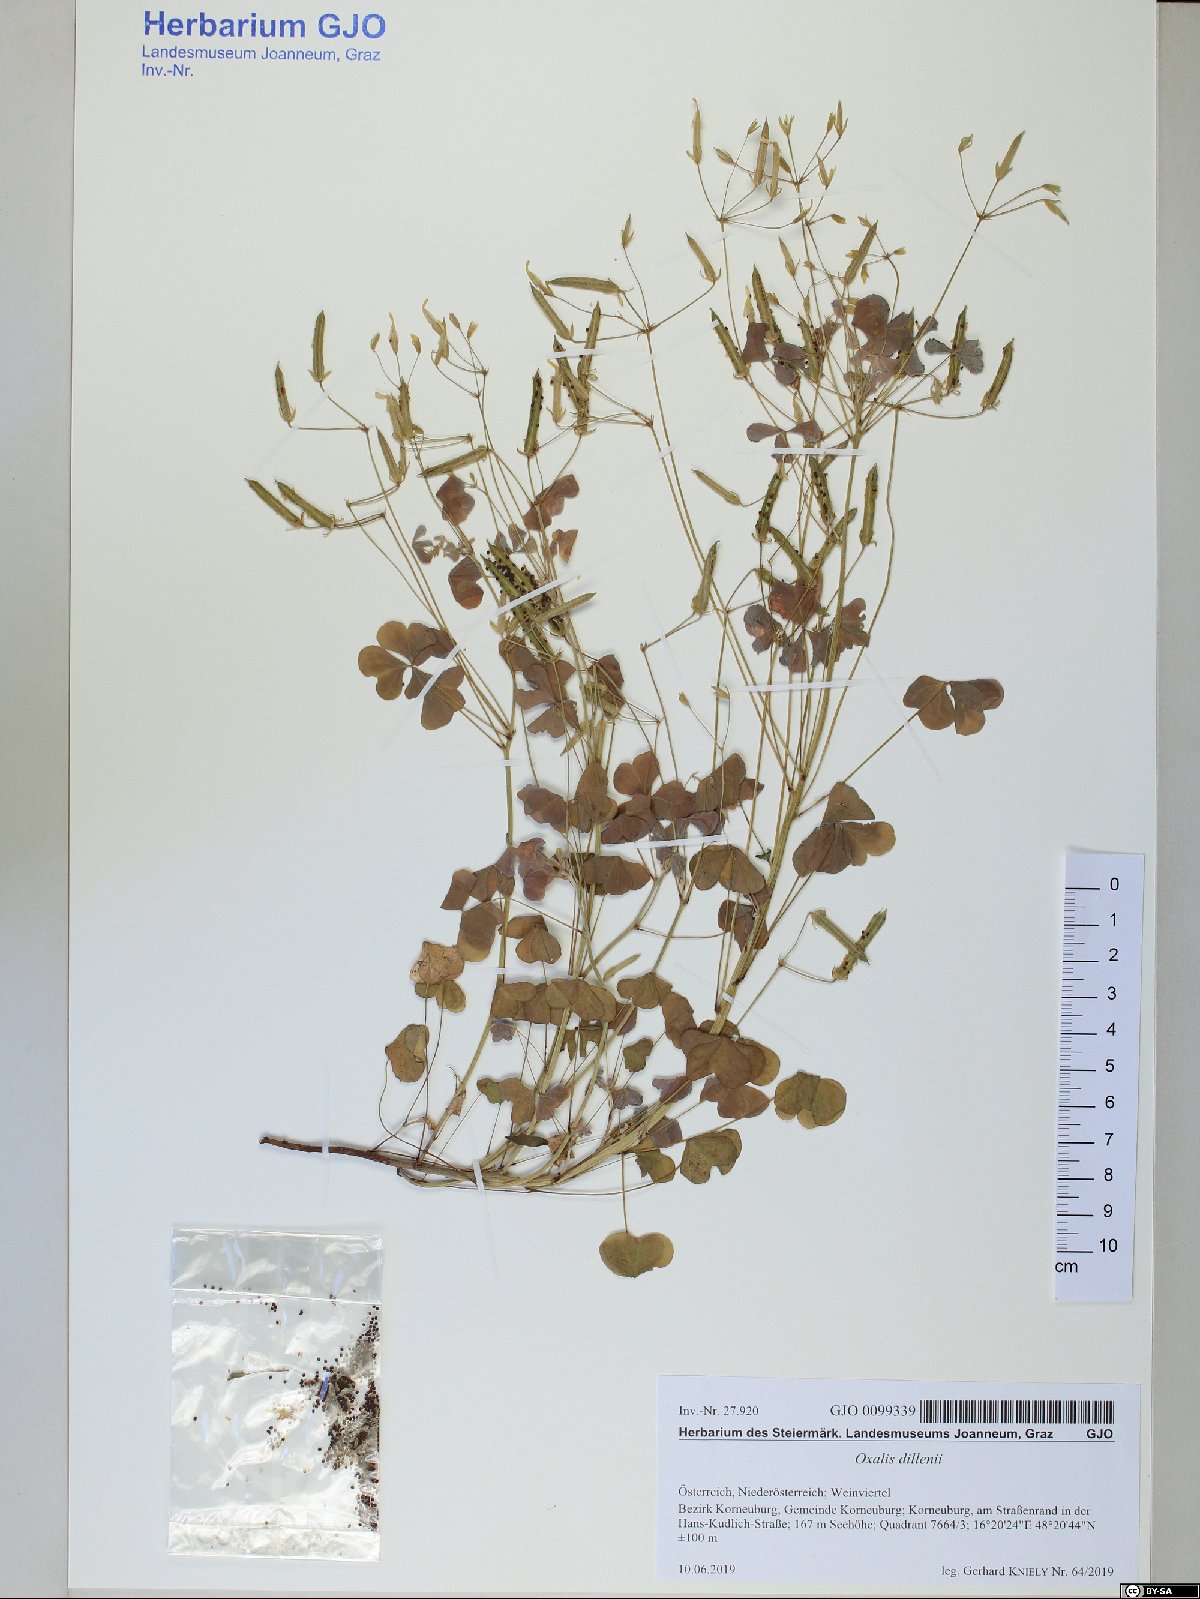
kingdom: Plantae
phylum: Tracheophyta
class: Magnoliopsida
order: Oxalidales
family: Oxalidaceae
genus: Oxalis
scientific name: Oxalis dillenii
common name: Sussex yellow-sorrel
